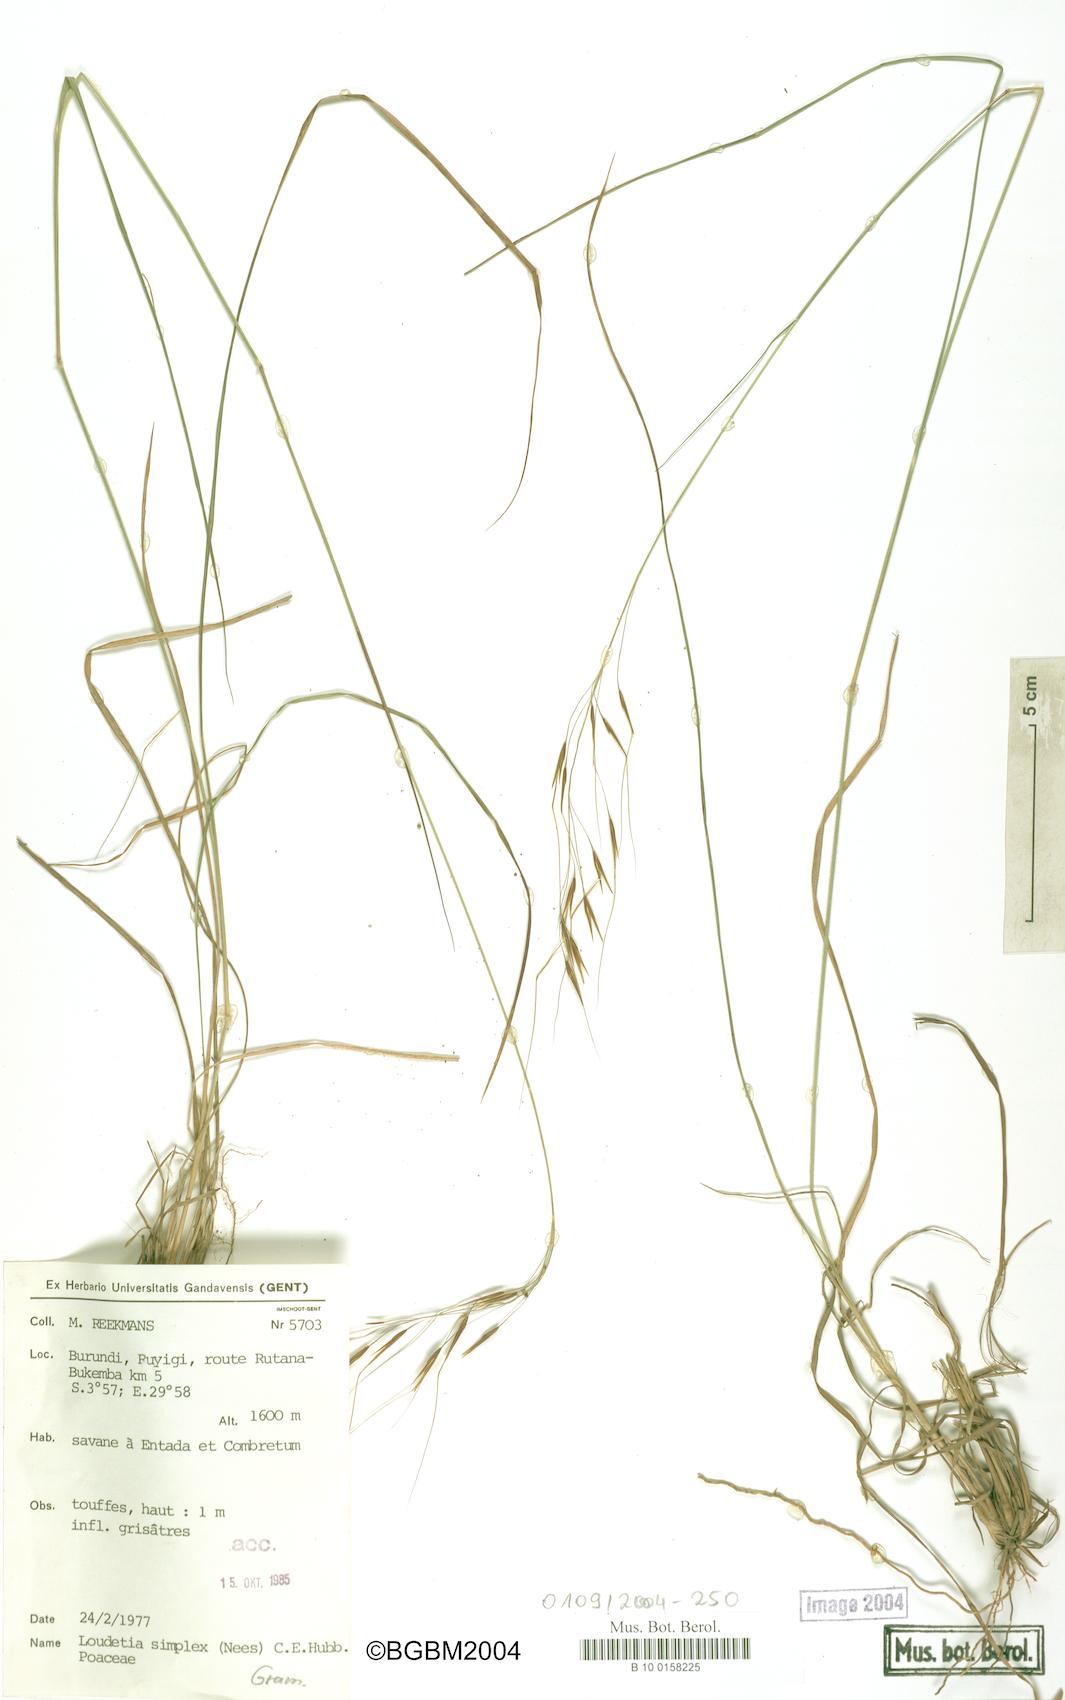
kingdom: Plantae
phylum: Tracheophyta
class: Liliopsida
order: Poales
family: Poaceae
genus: Loudetia
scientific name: Loudetia simplex
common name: Common russet grass
